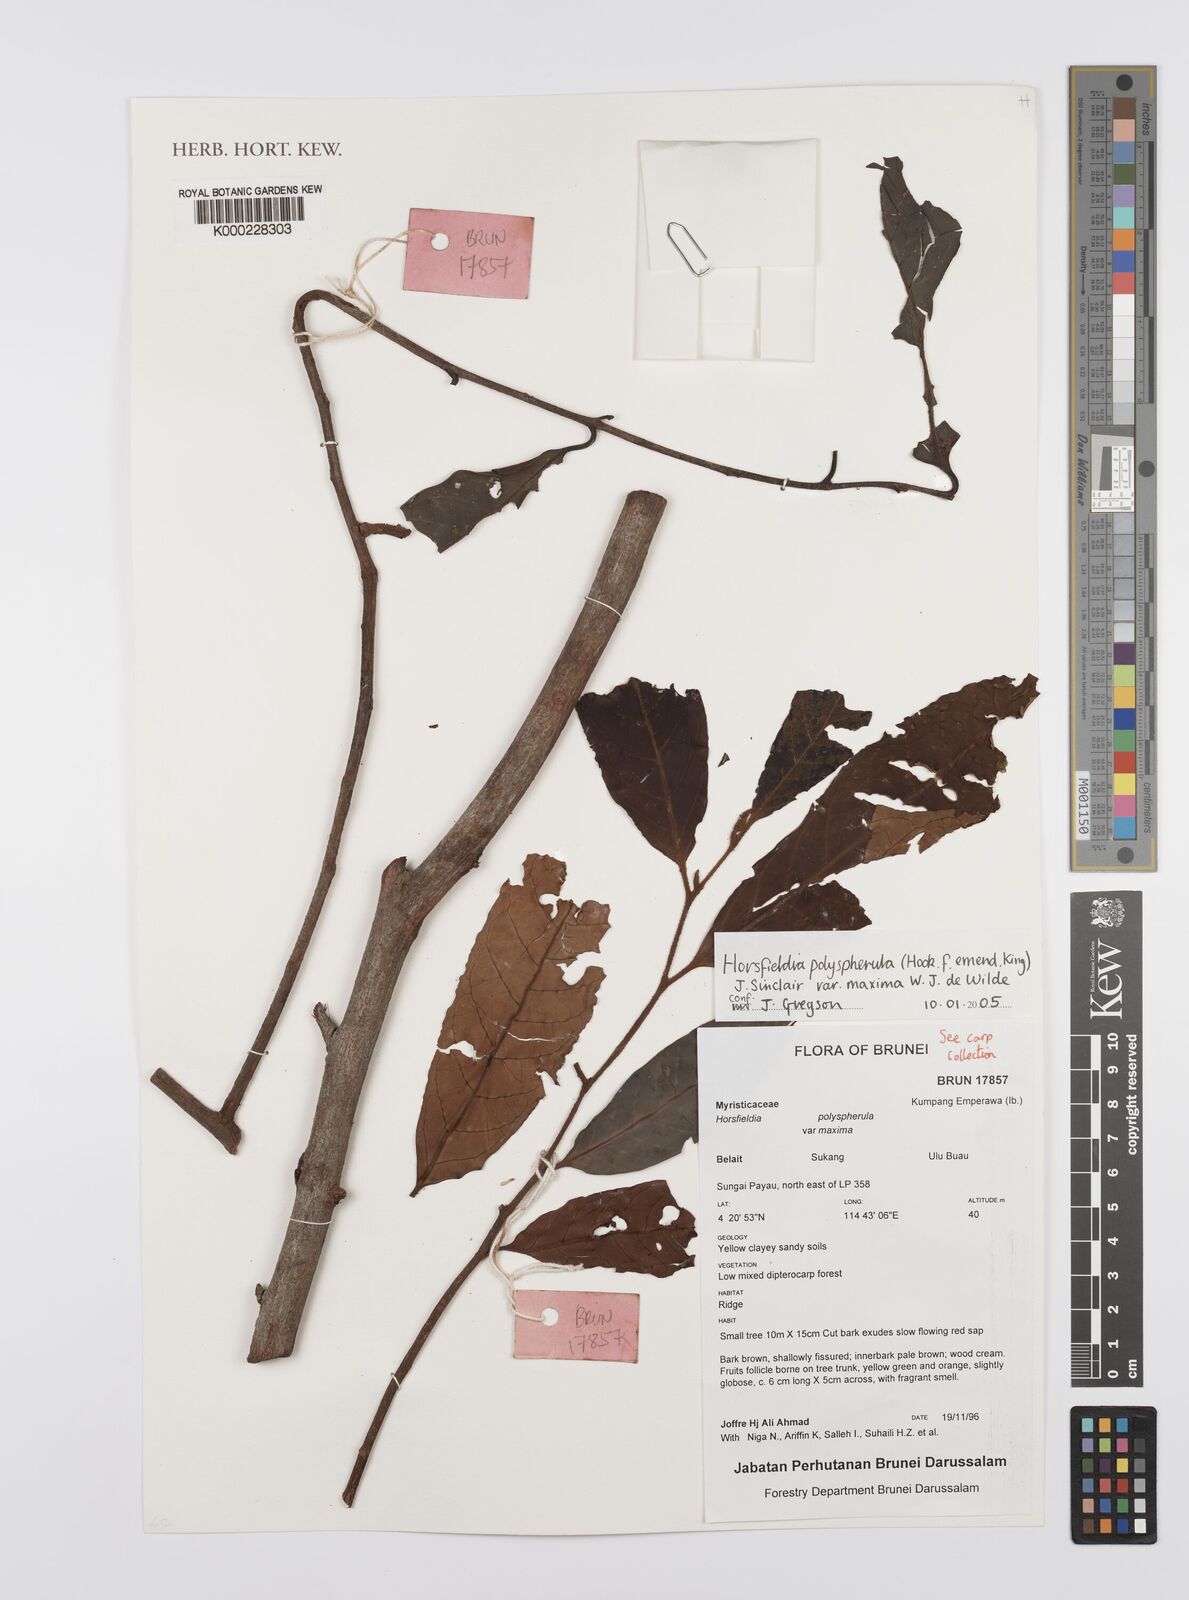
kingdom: Plantae
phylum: Tracheophyta
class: Magnoliopsida
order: Magnoliales
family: Myristicaceae
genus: Horsfieldia
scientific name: Horsfieldia polyspherula
